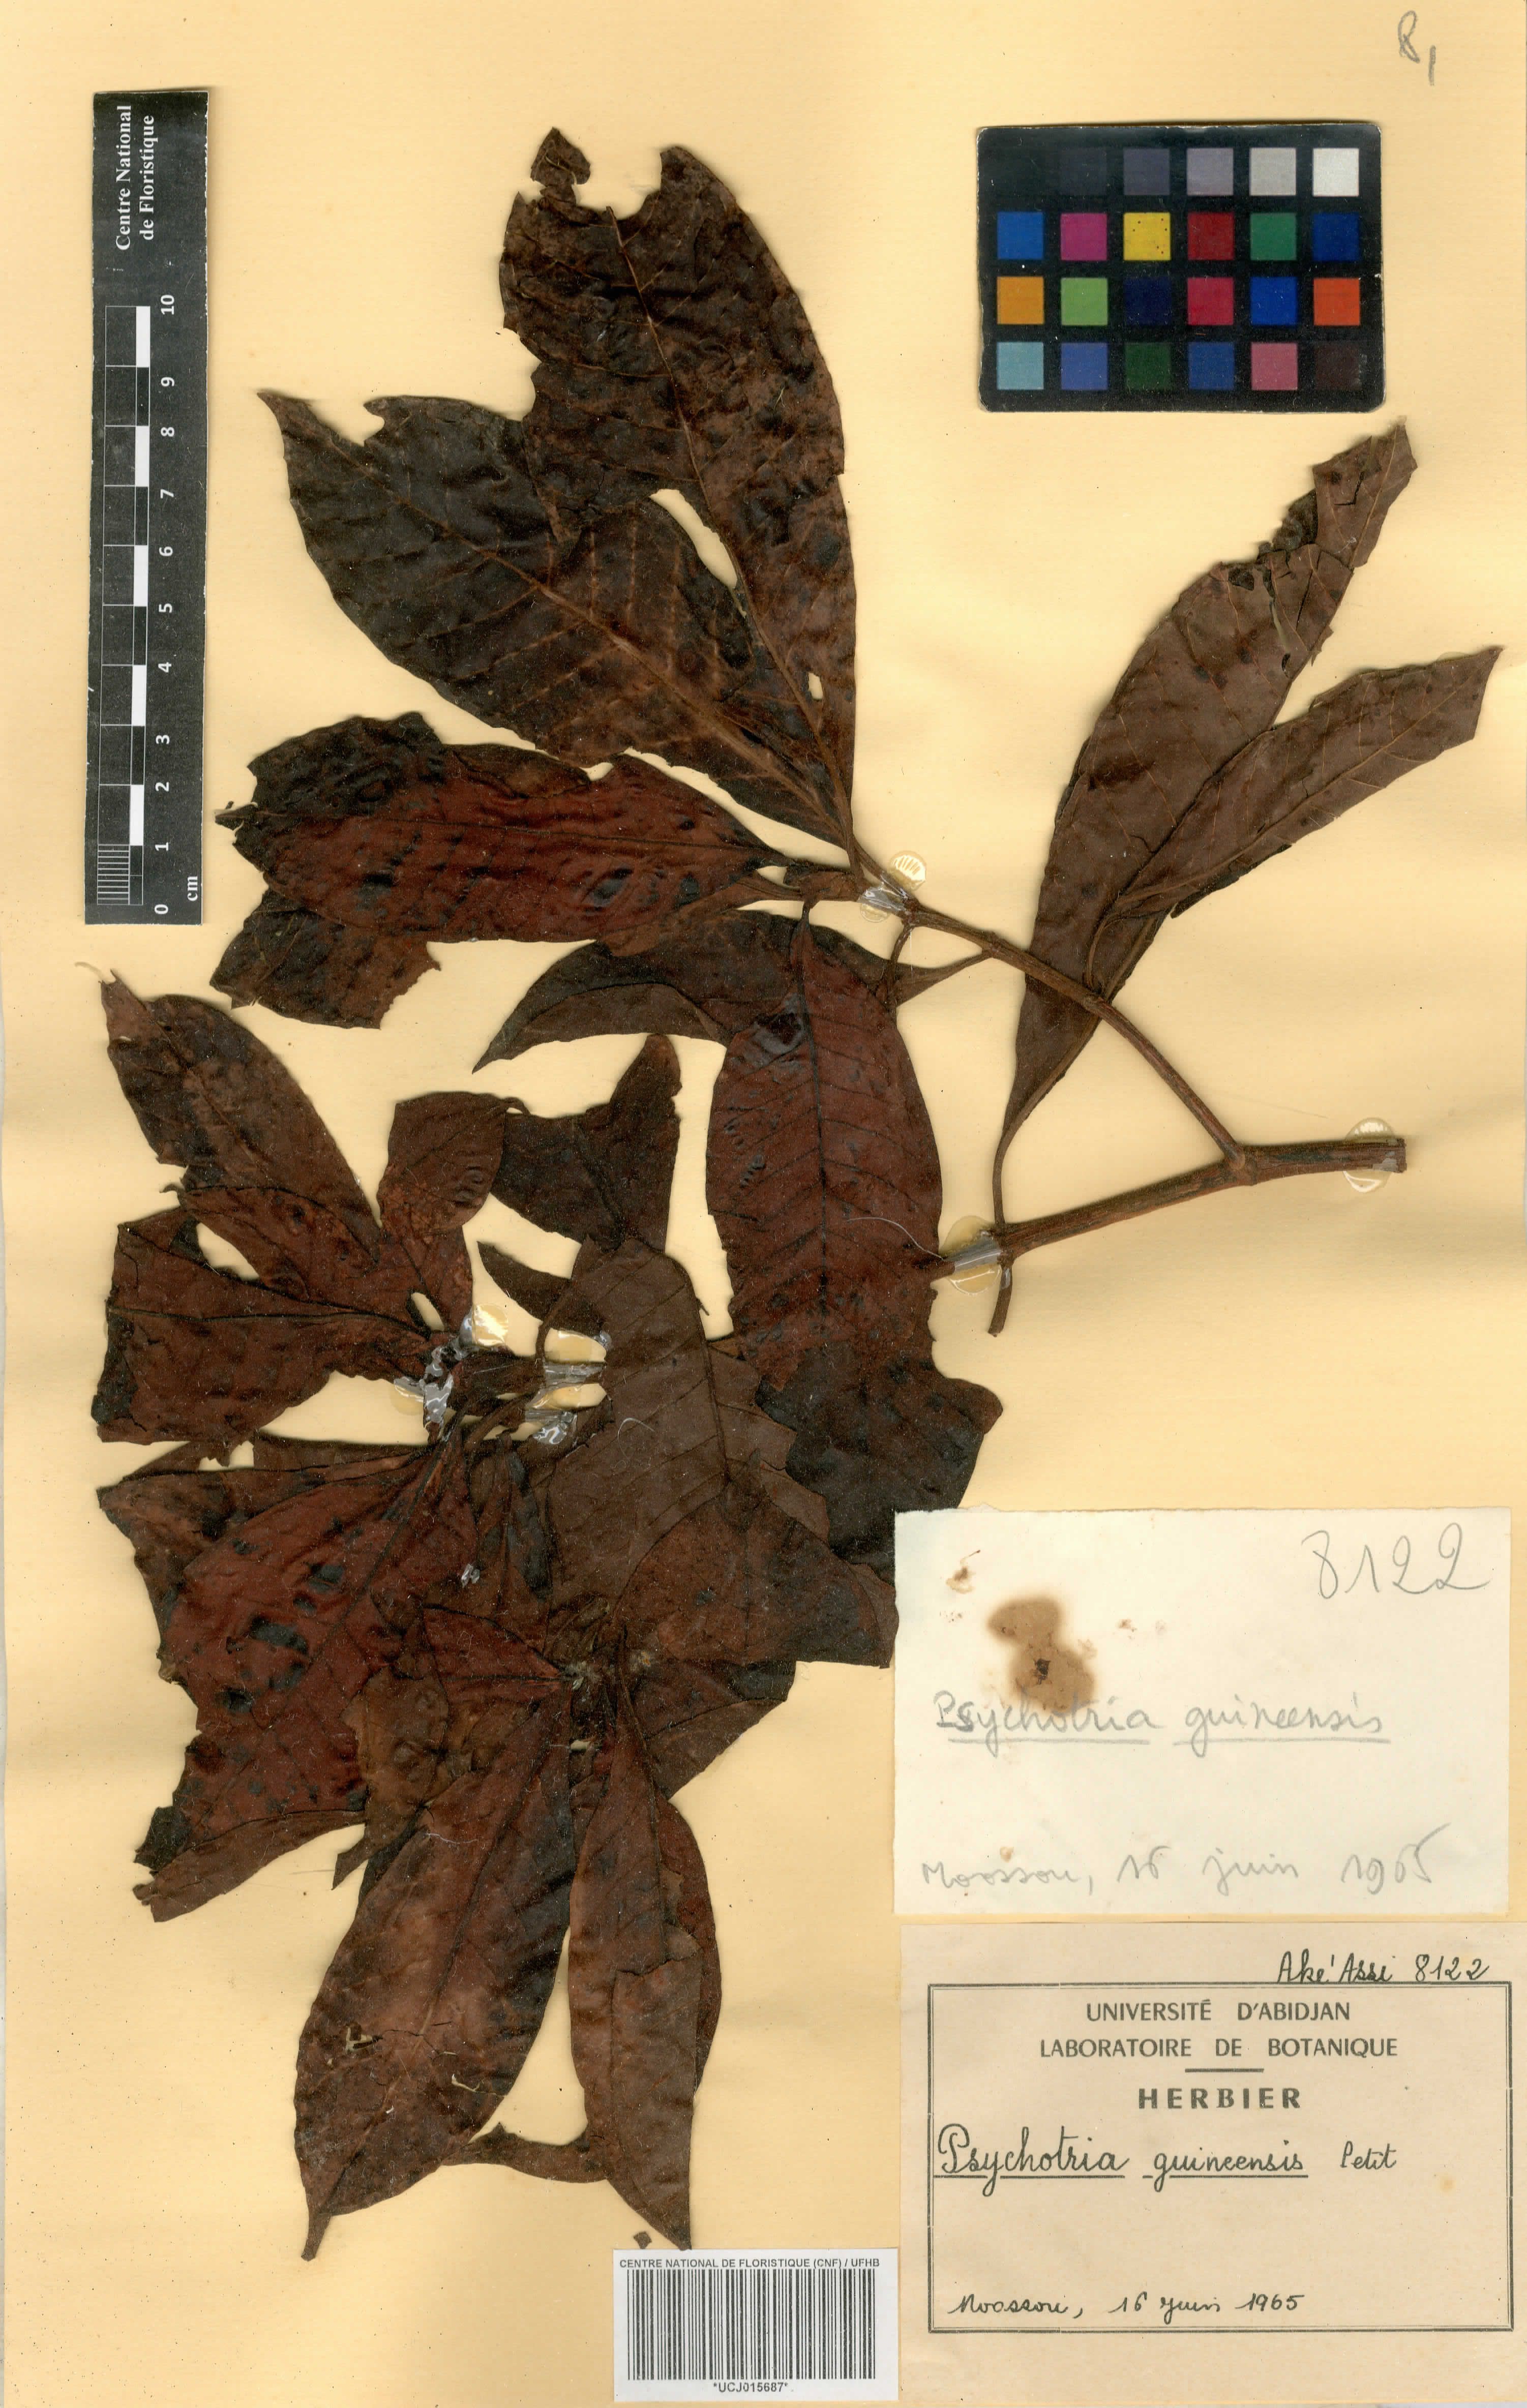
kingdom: Plantae
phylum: Tracheophyta
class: Magnoliopsida
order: Gentianales
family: Rubiaceae
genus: Psychotria
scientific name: Psychotria guineensis
